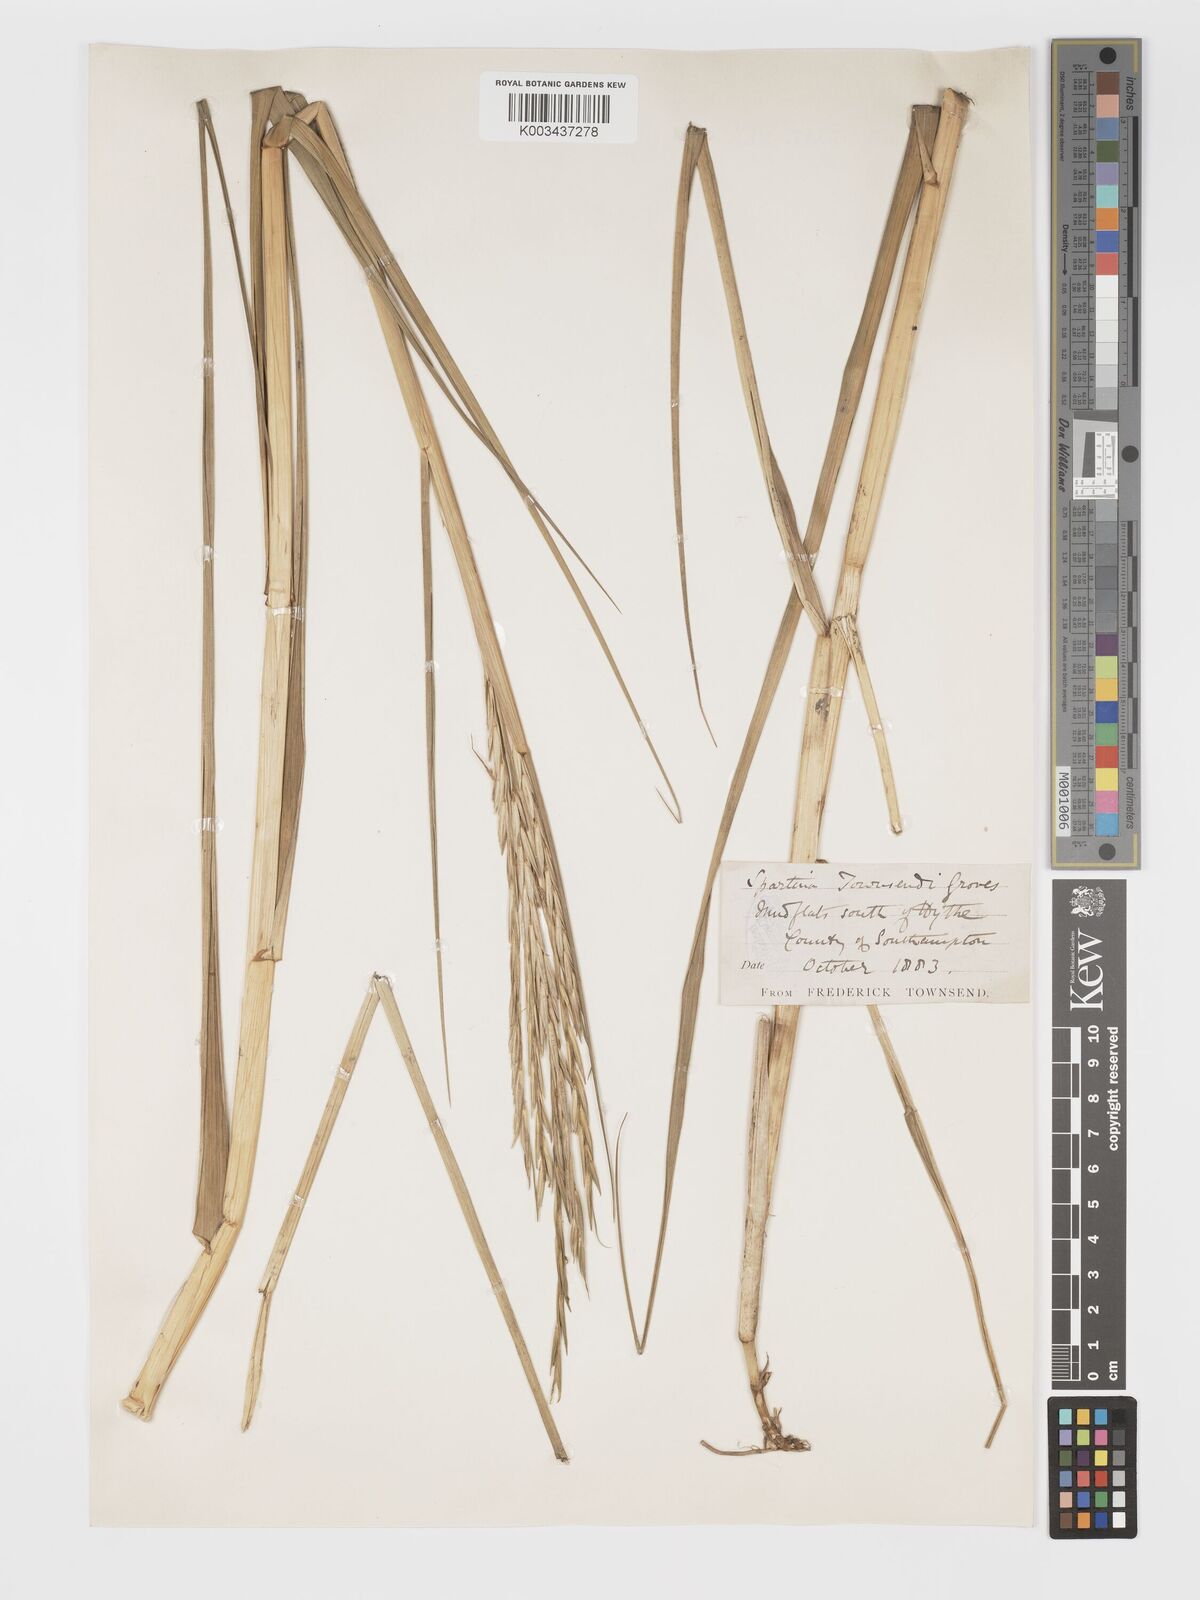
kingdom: Plantae
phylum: Tracheophyta
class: Liliopsida
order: Poales
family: Poaceae
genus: Sporobolus
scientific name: Sporobolus townsendii
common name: Townsend's cordgrass
